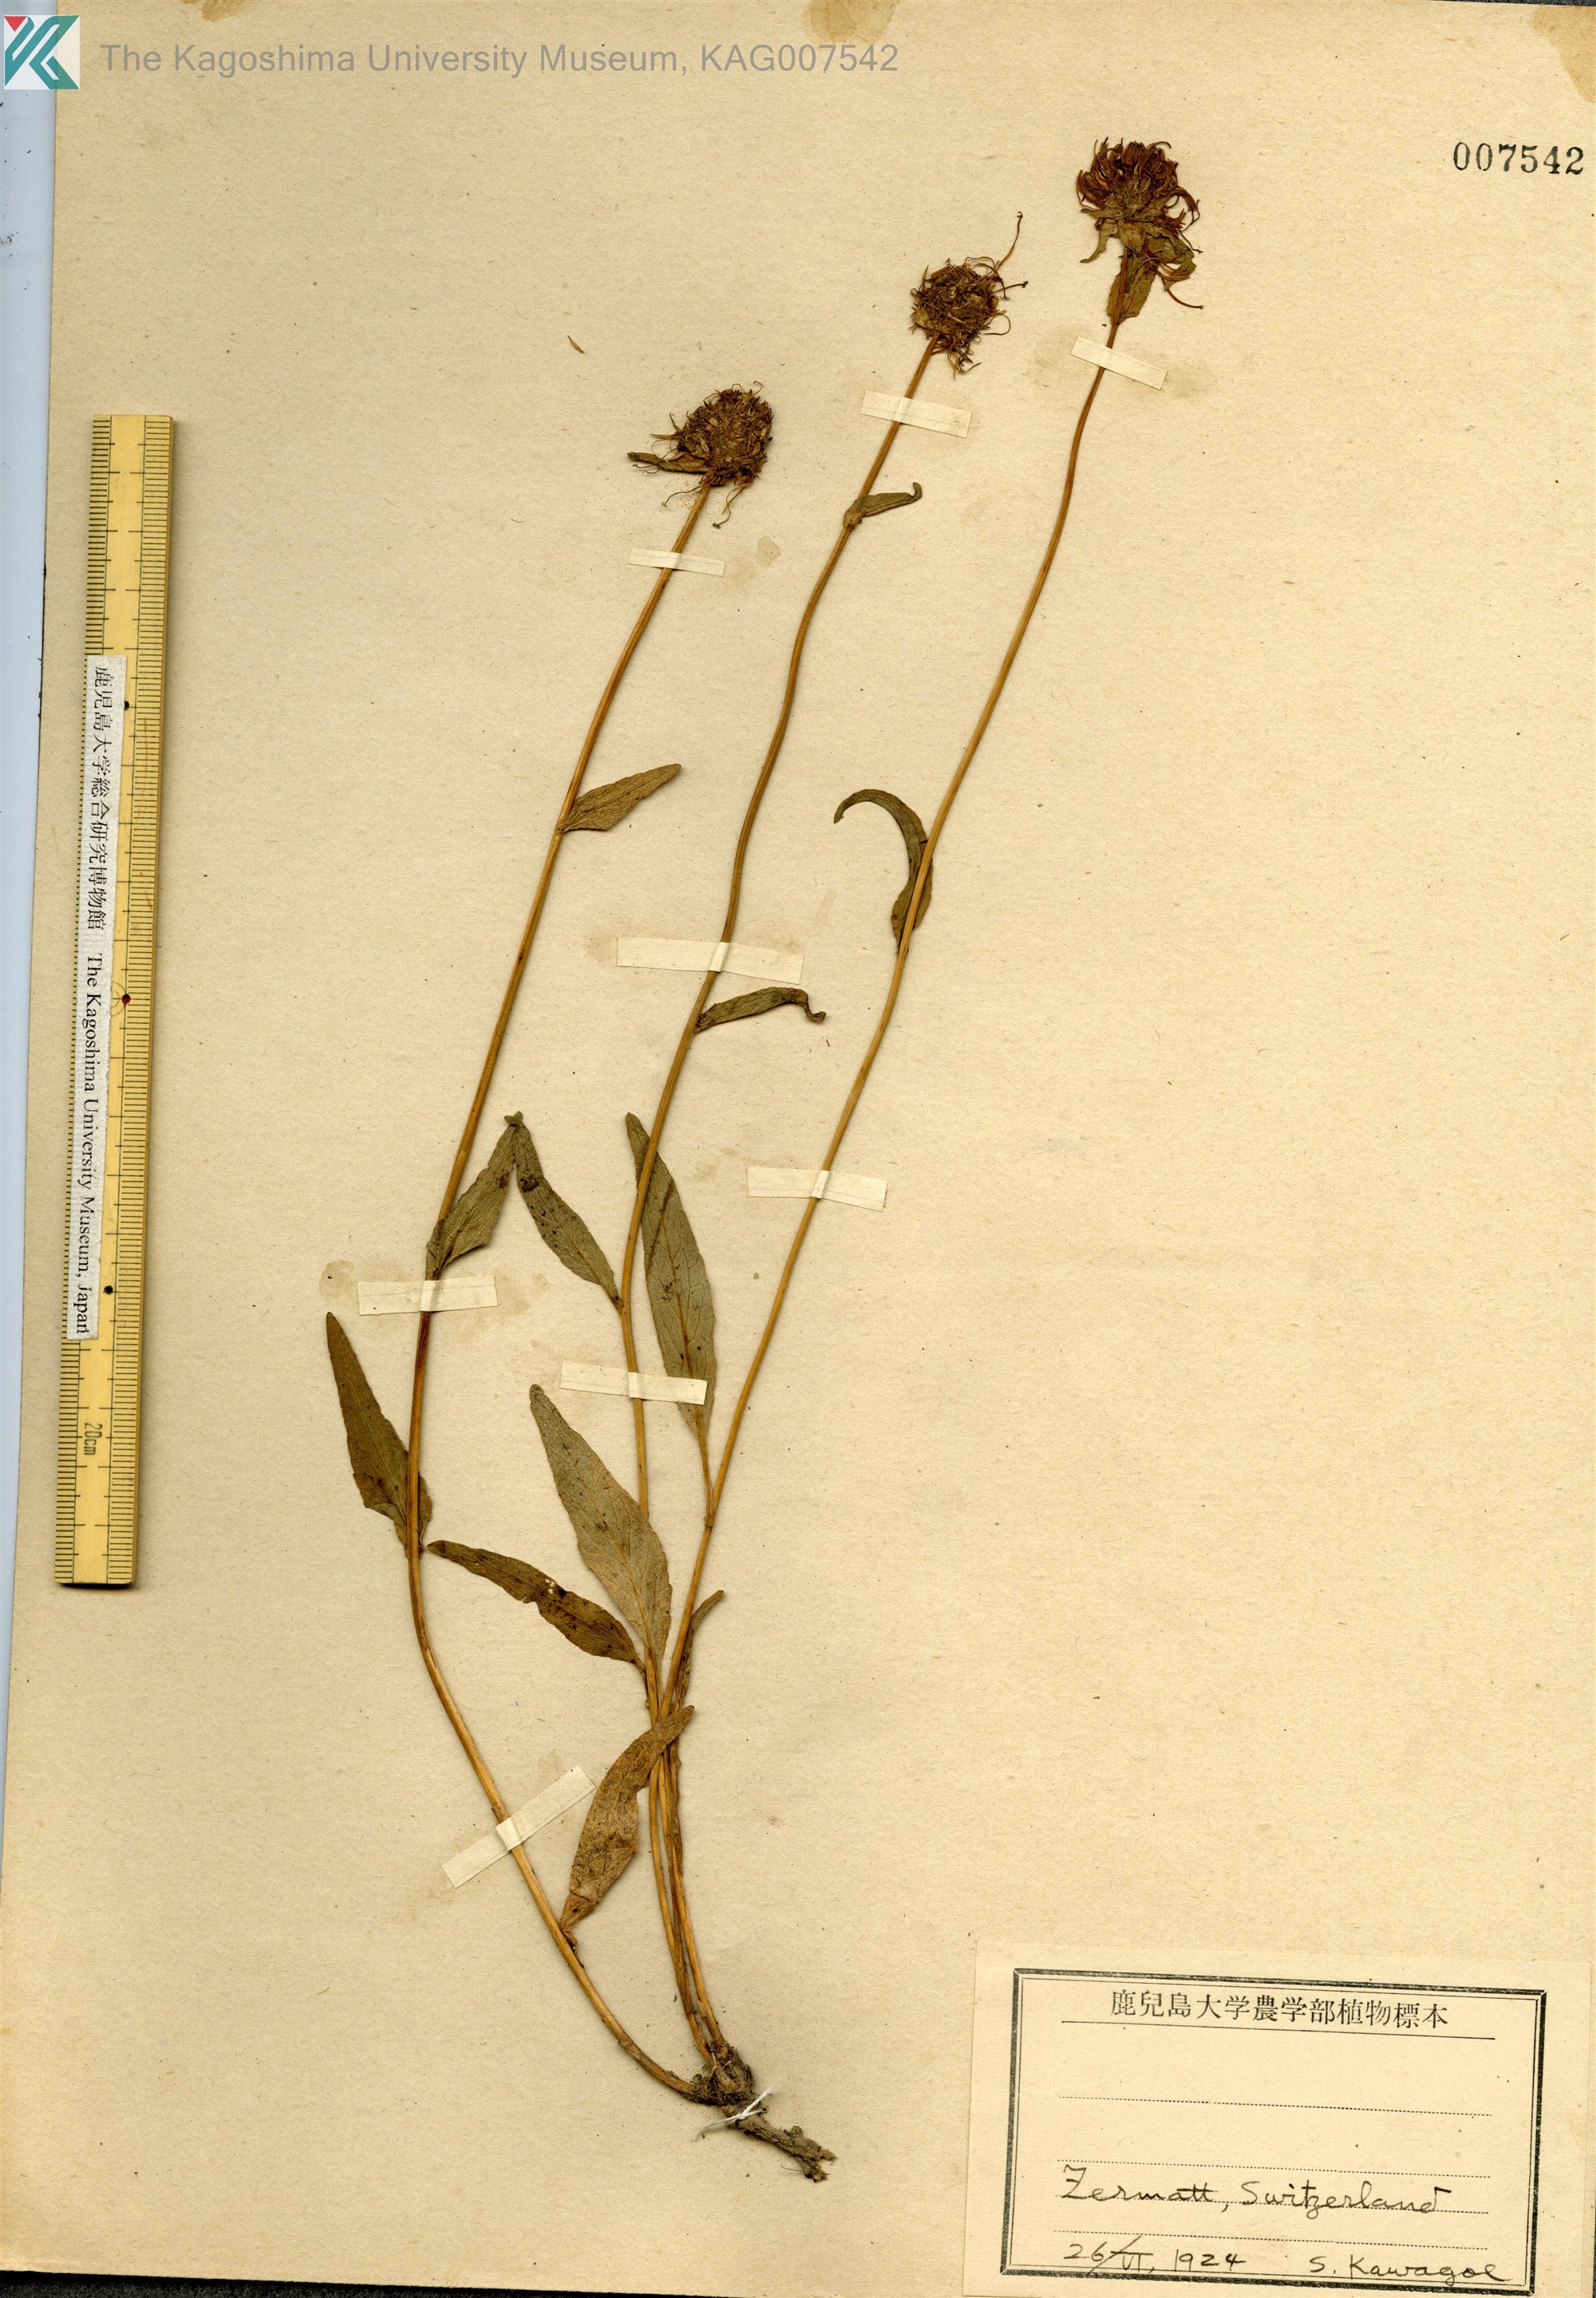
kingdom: Plantae
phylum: Tracheophyta
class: Magnoliopsida
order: Asterales
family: Campanulaceae
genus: Phyteuma
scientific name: Phyteuma betonicifolium
